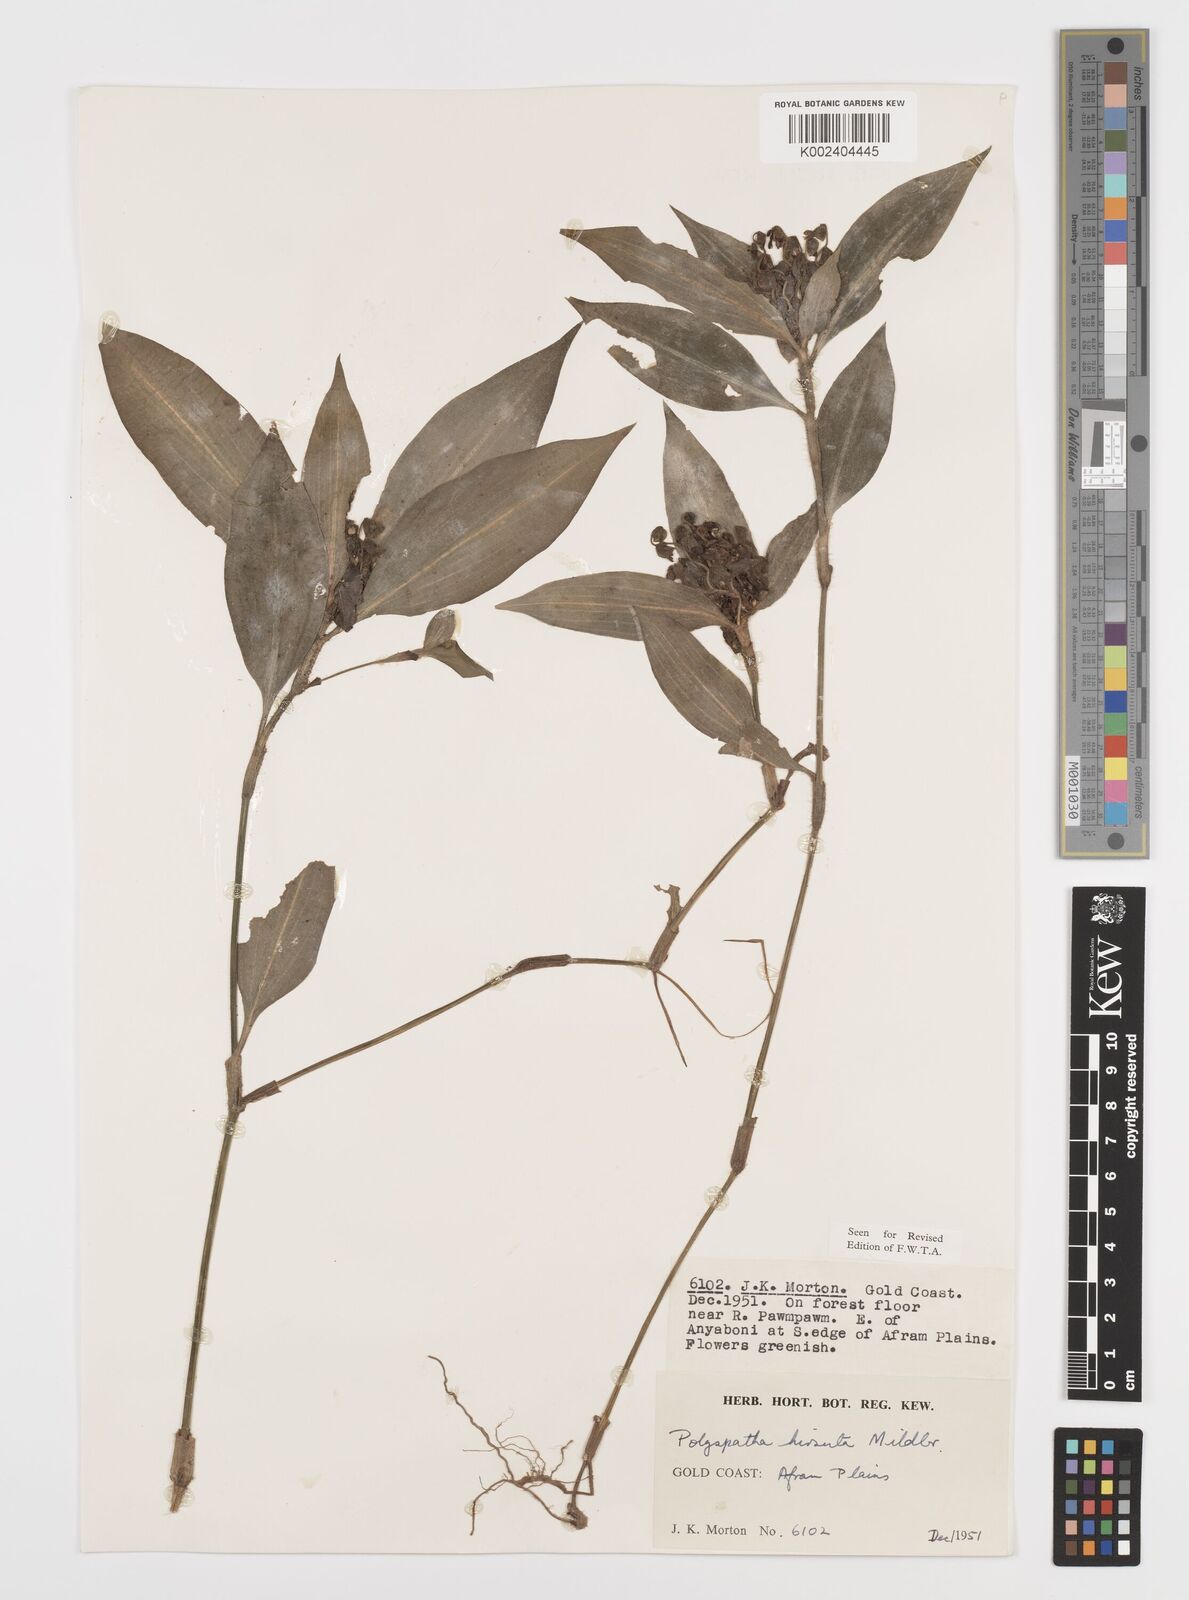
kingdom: Plantae
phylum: Tracheophyta
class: Liliopsida
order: Commelinales
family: Commelinaceae
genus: Polyspatha
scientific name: Polyspatha hirsuta
